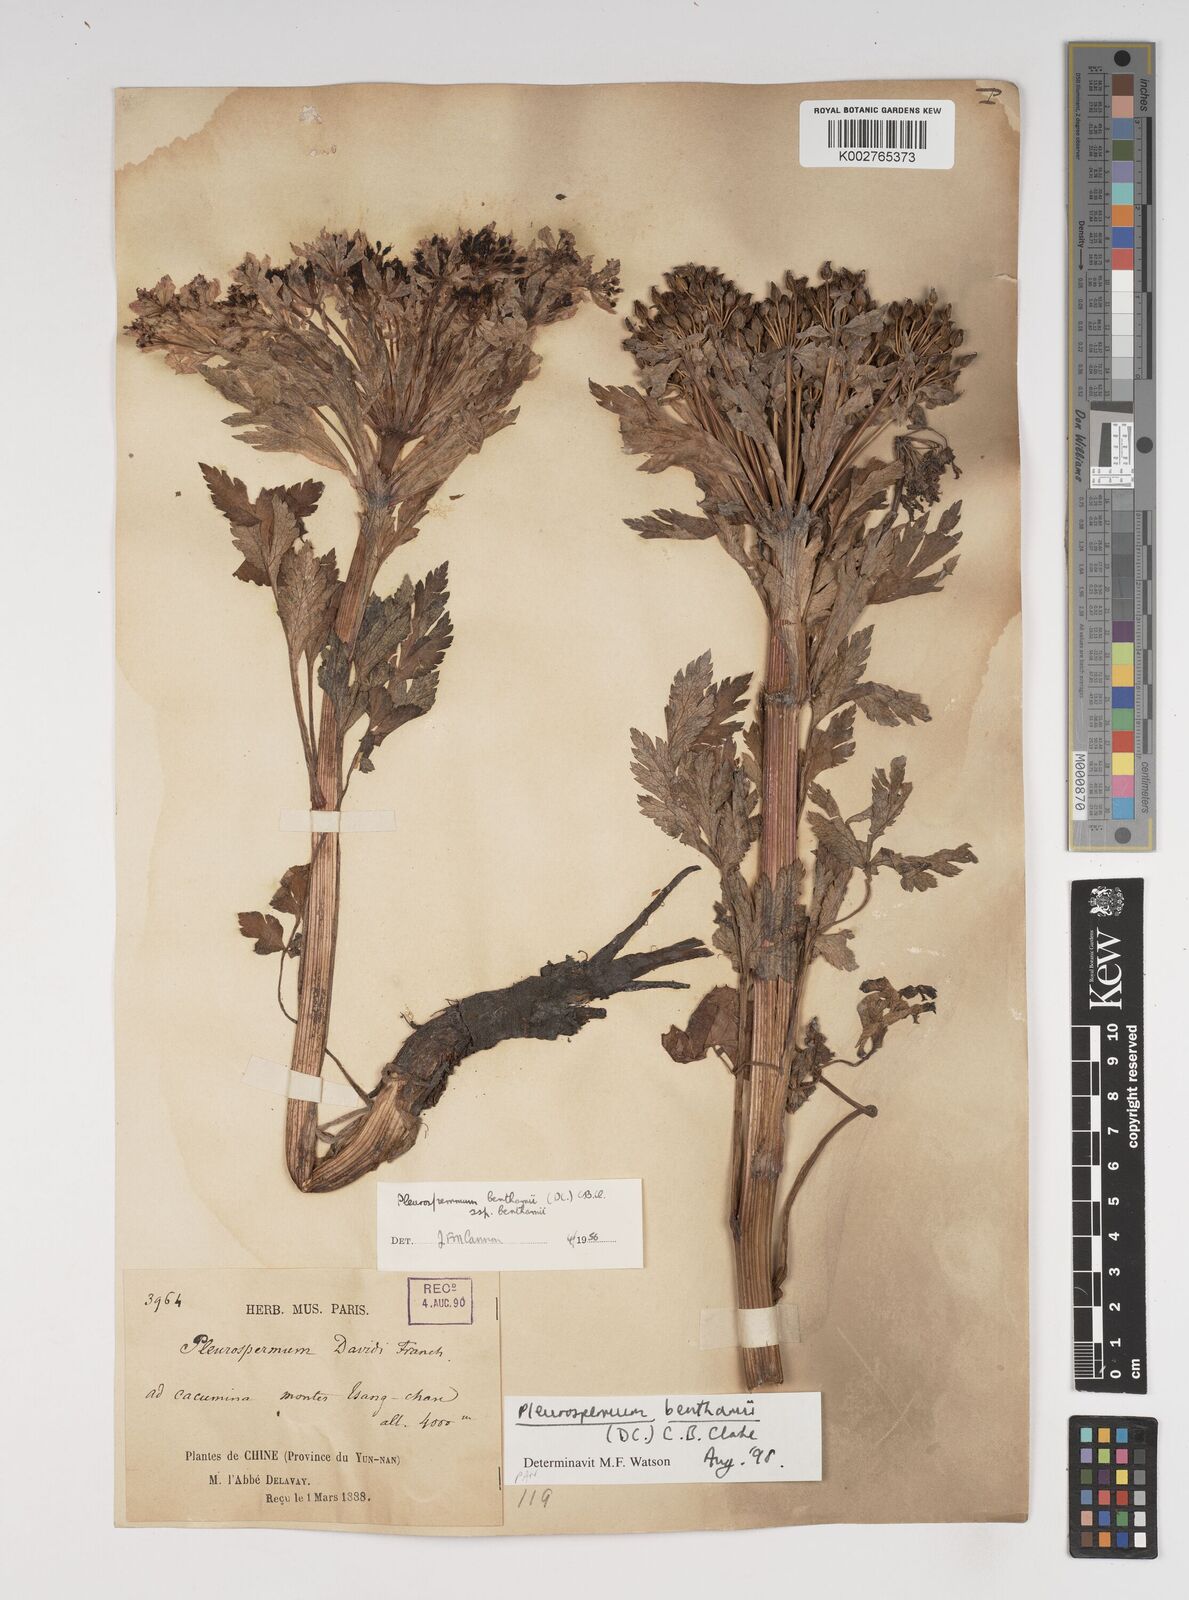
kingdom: Plantae
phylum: Tracheophyta
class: Magnoliopsida
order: Apiales
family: Apiaceae
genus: Hymenidium
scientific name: Hymenidium benthamii
